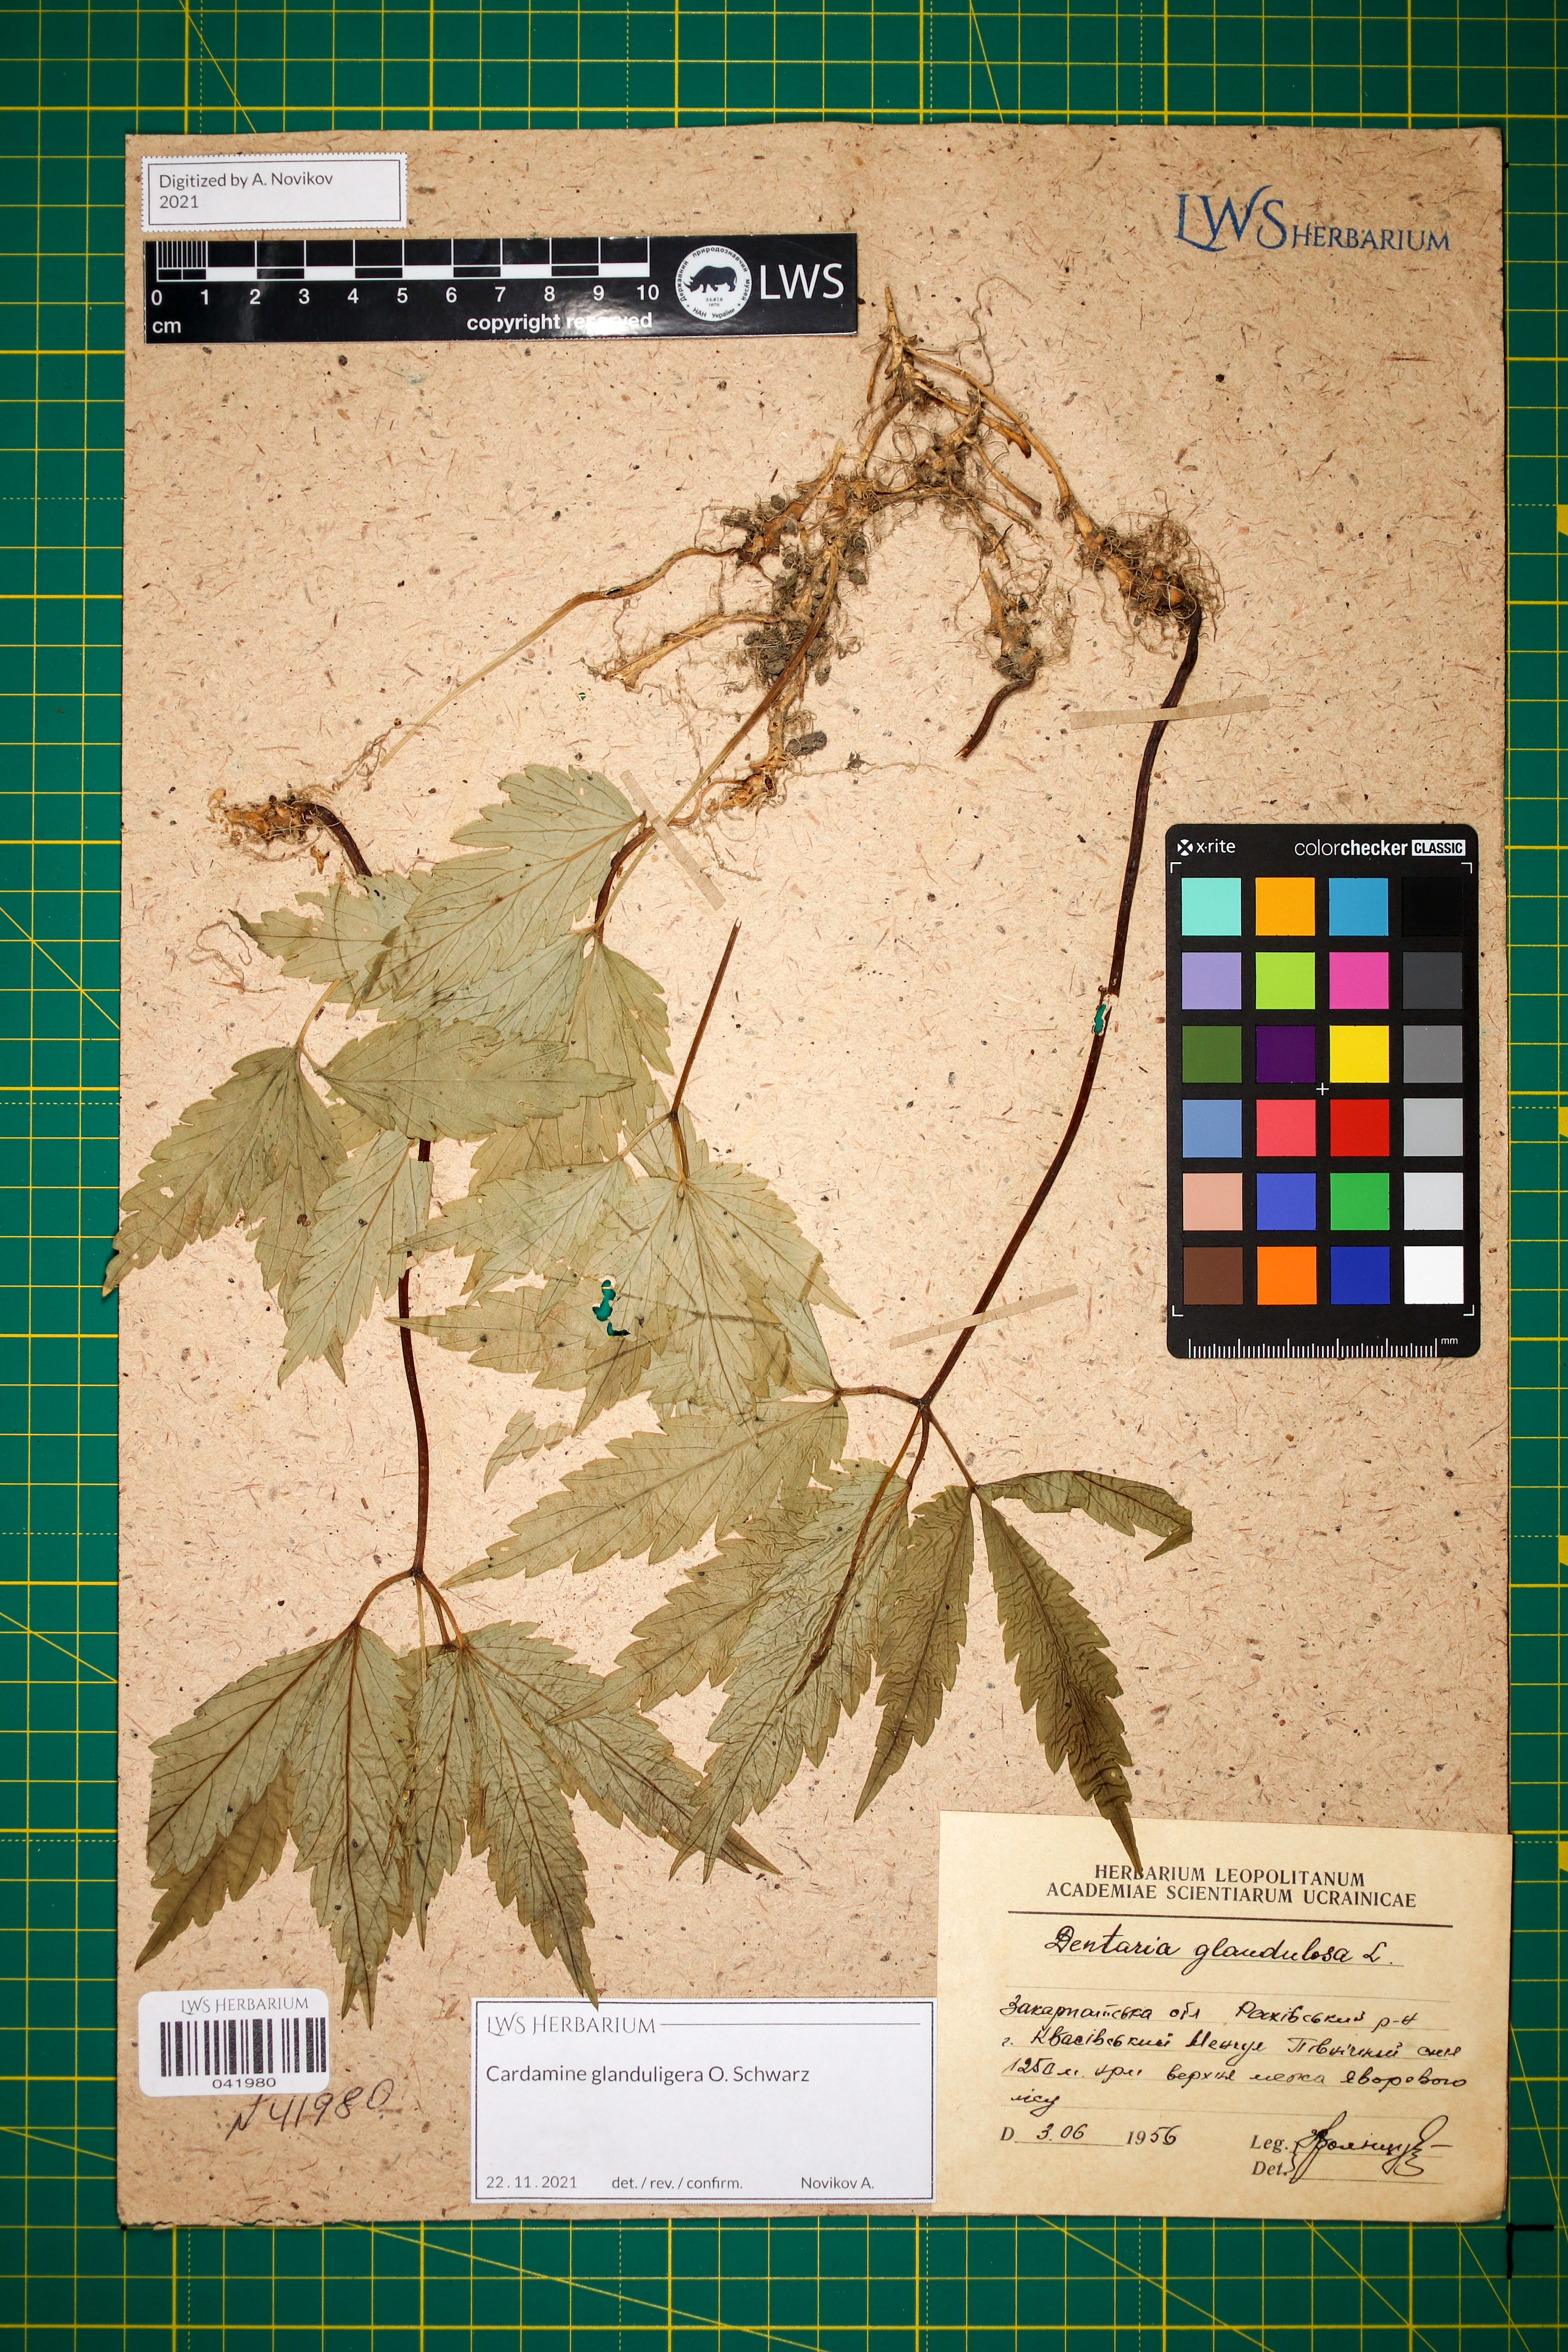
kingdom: Plantae
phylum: Tracheophyta
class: Magnoliopsida
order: Brassicales
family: Brassicaceae
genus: Cardamine
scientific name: Cardamine glanduligera
